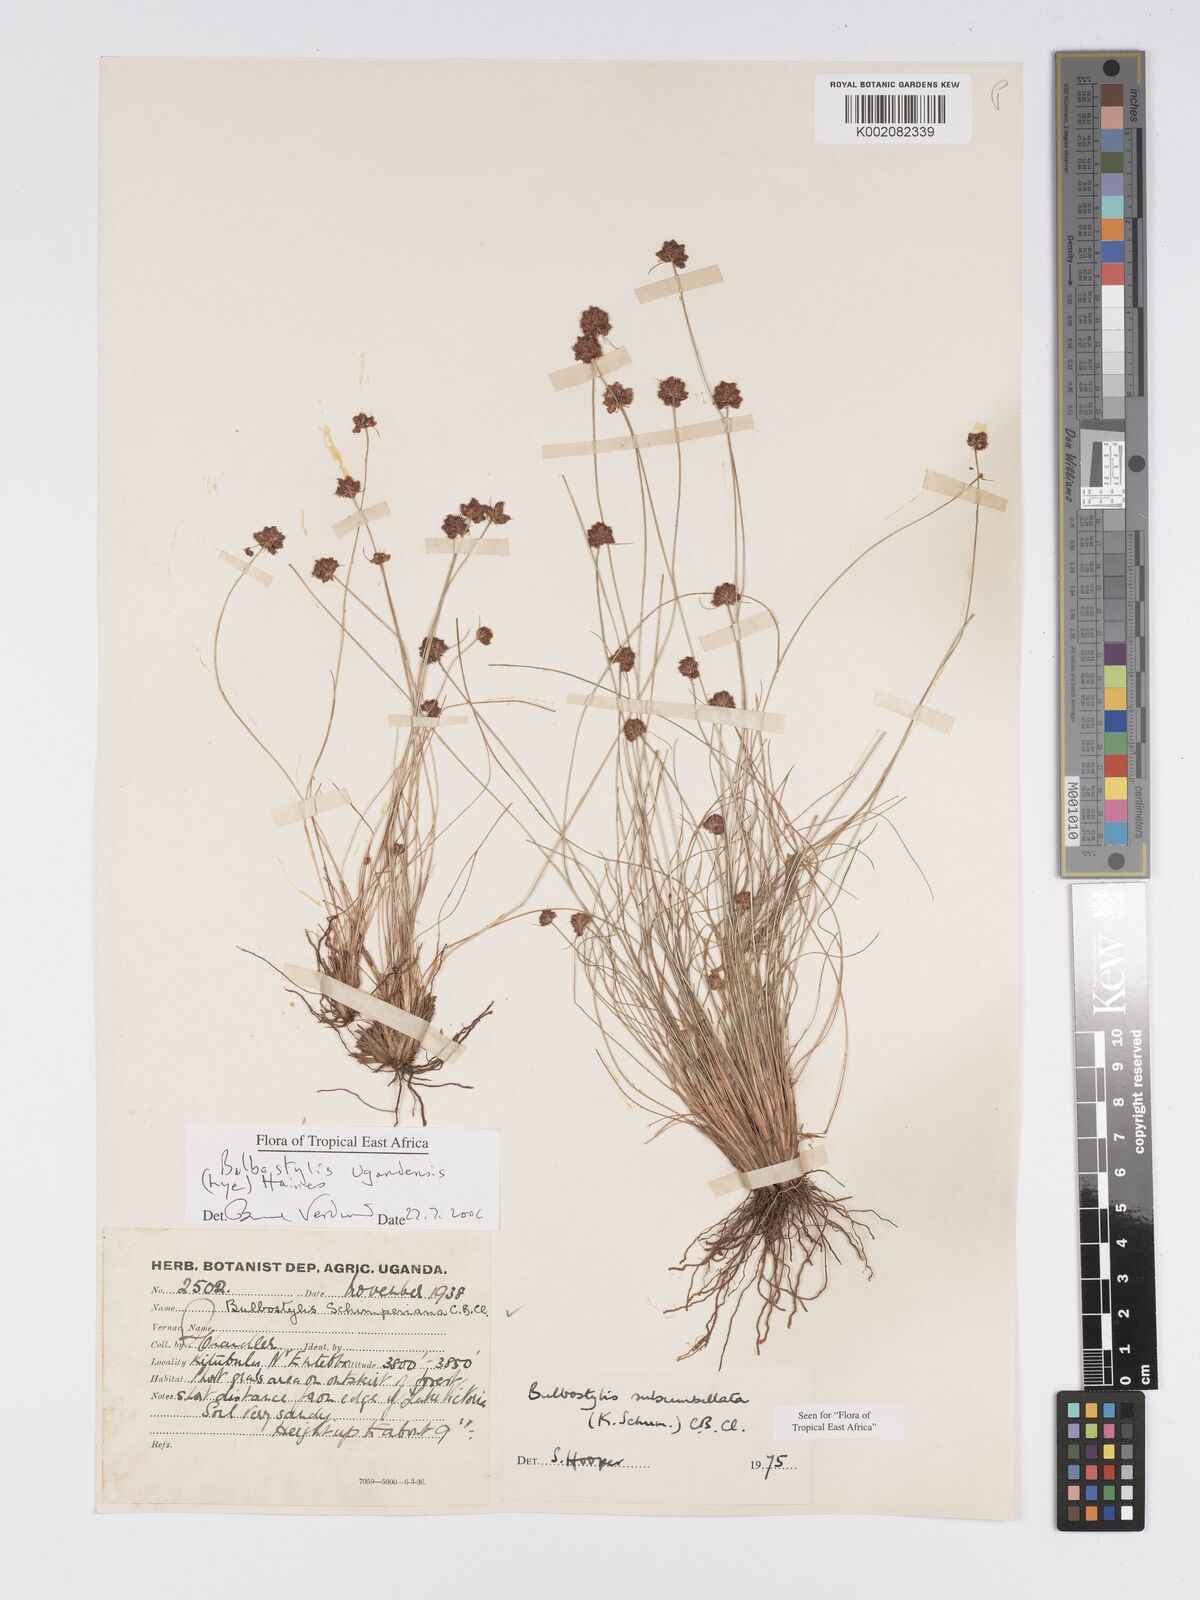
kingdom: Plantae
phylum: Tracheophyta
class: Liliopsida
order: Poales
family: Cyperaceae
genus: Bulbostylis
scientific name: Bulbostylis ugandensis
